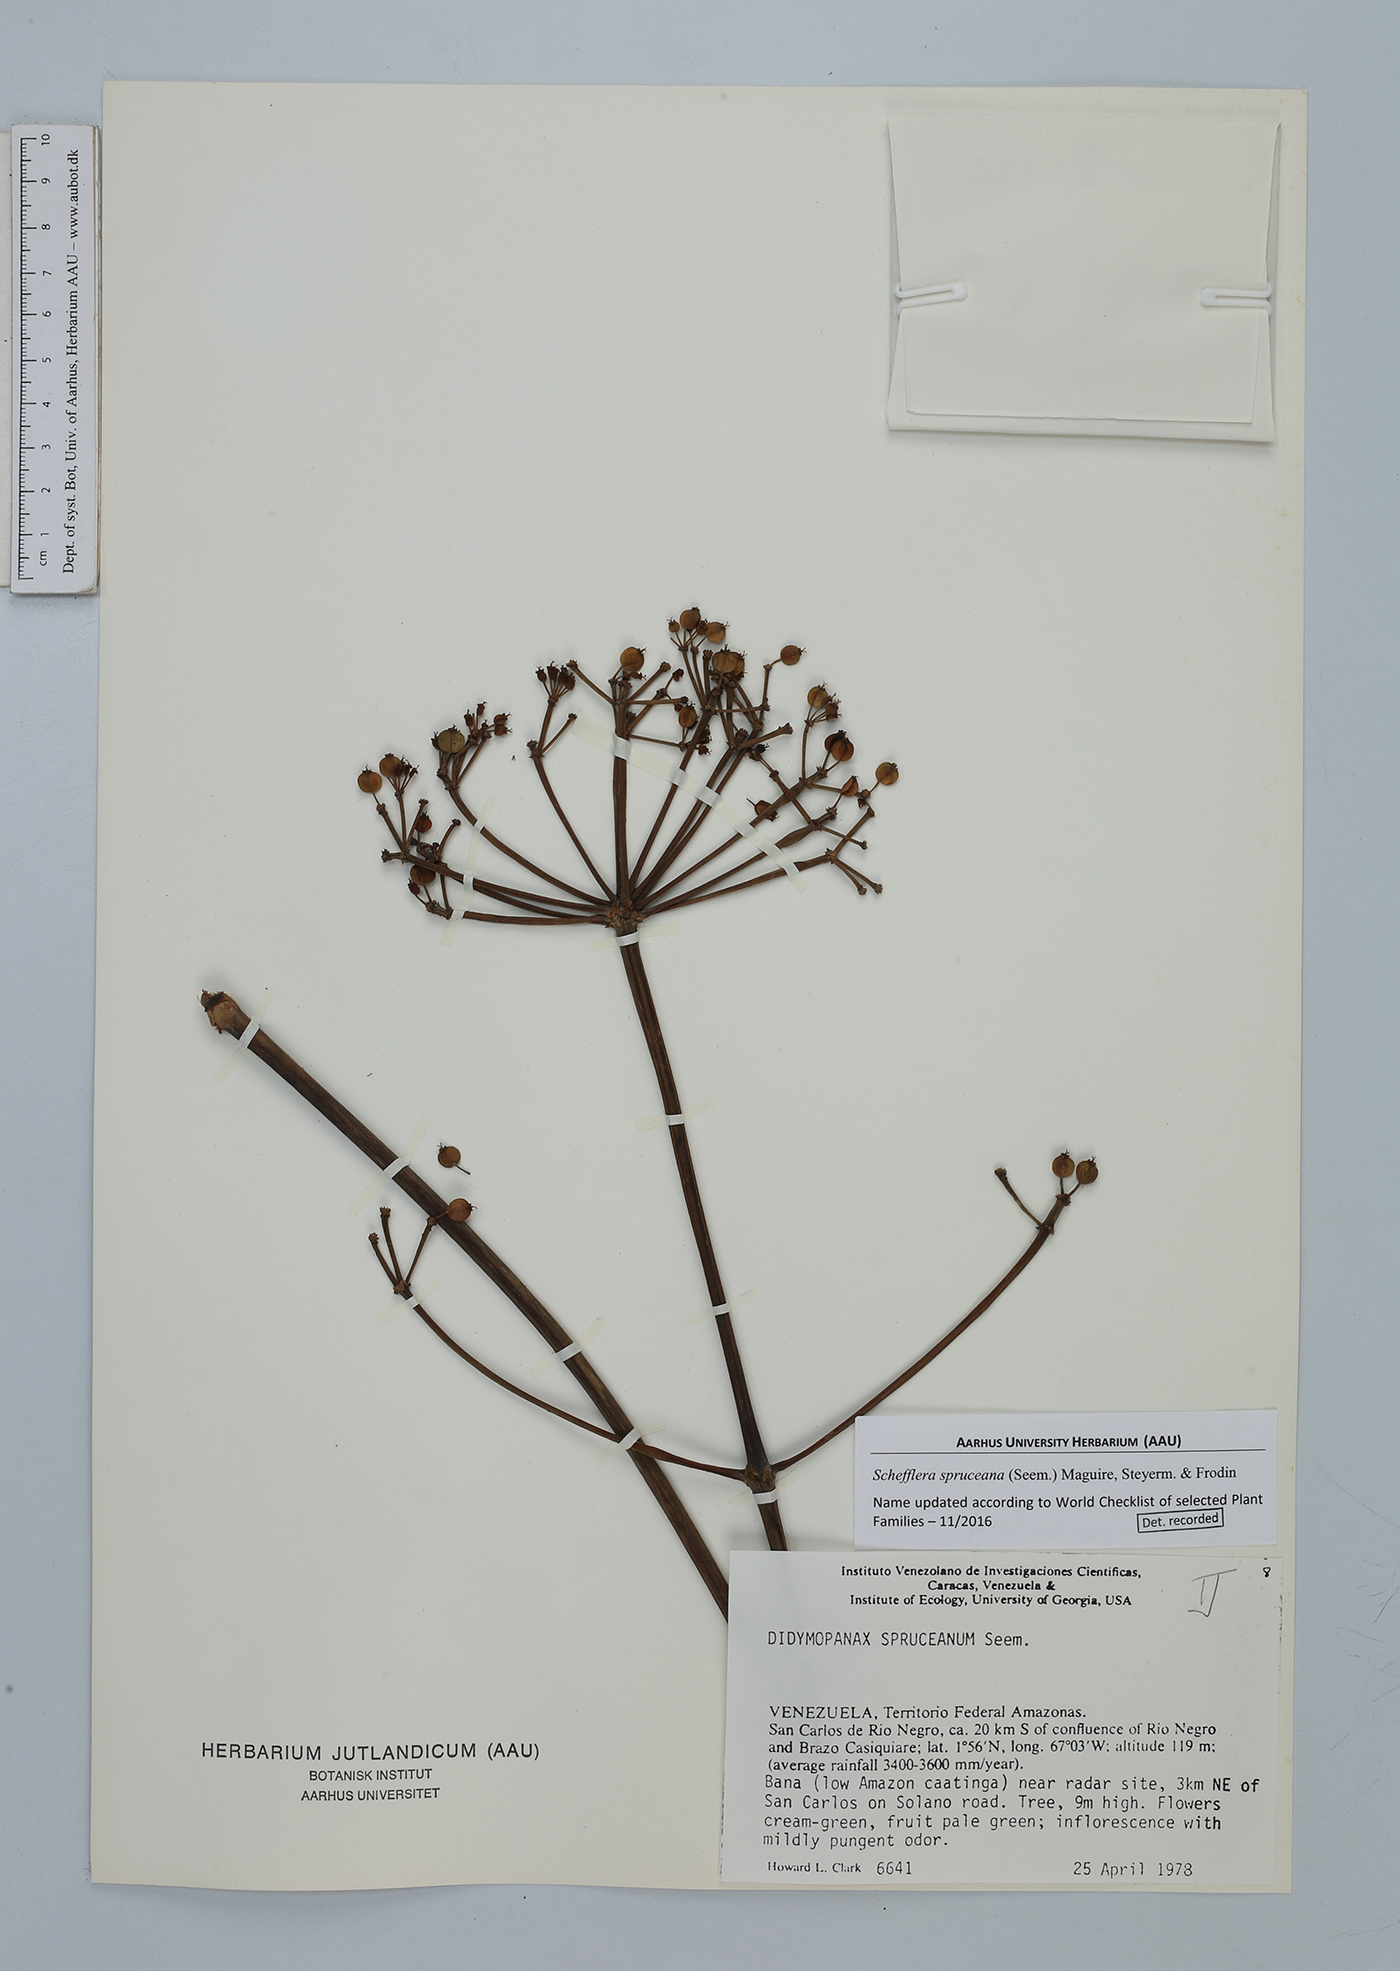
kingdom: Plantae
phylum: Tracheophyta
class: Magnoliopsida
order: Apiales
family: Araliaceae
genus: Crepinella
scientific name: Crepinella spruceana
